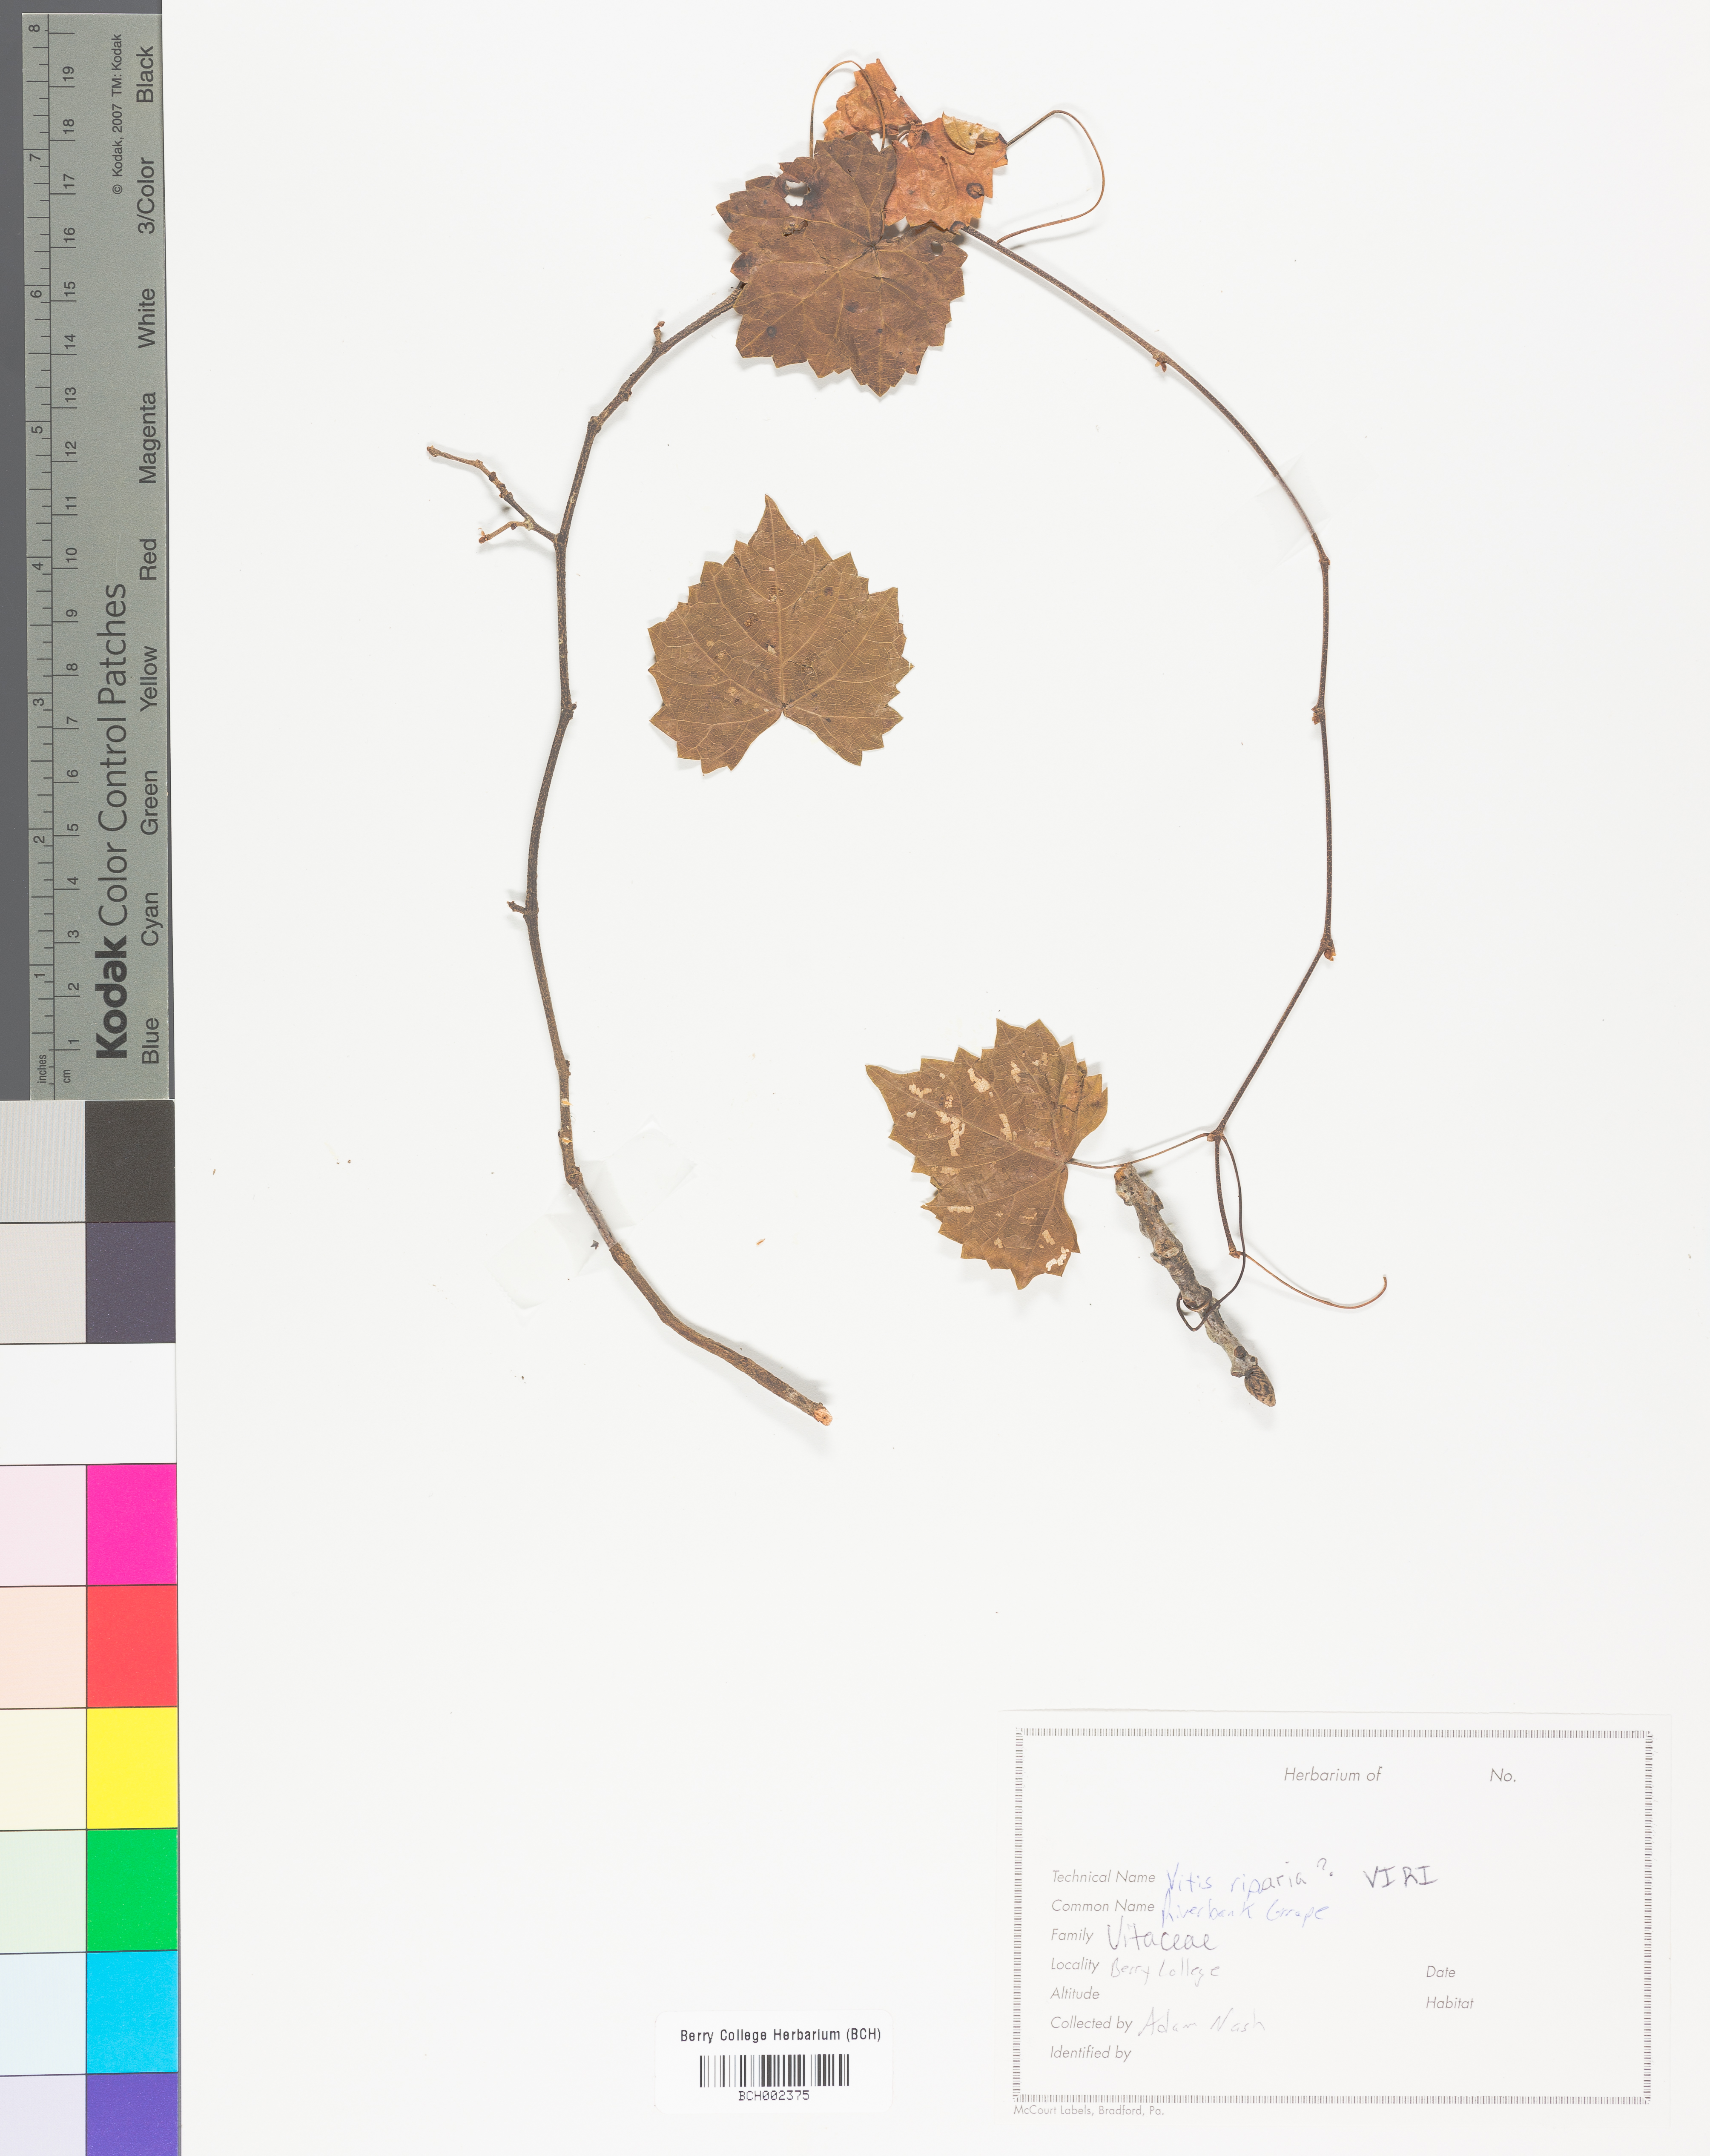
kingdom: Plantae
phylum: Tracheophyta
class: Magnoliopsida
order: Vitales
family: Vitaceae
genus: Vitis
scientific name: Vitis riparia
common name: Frost grape
